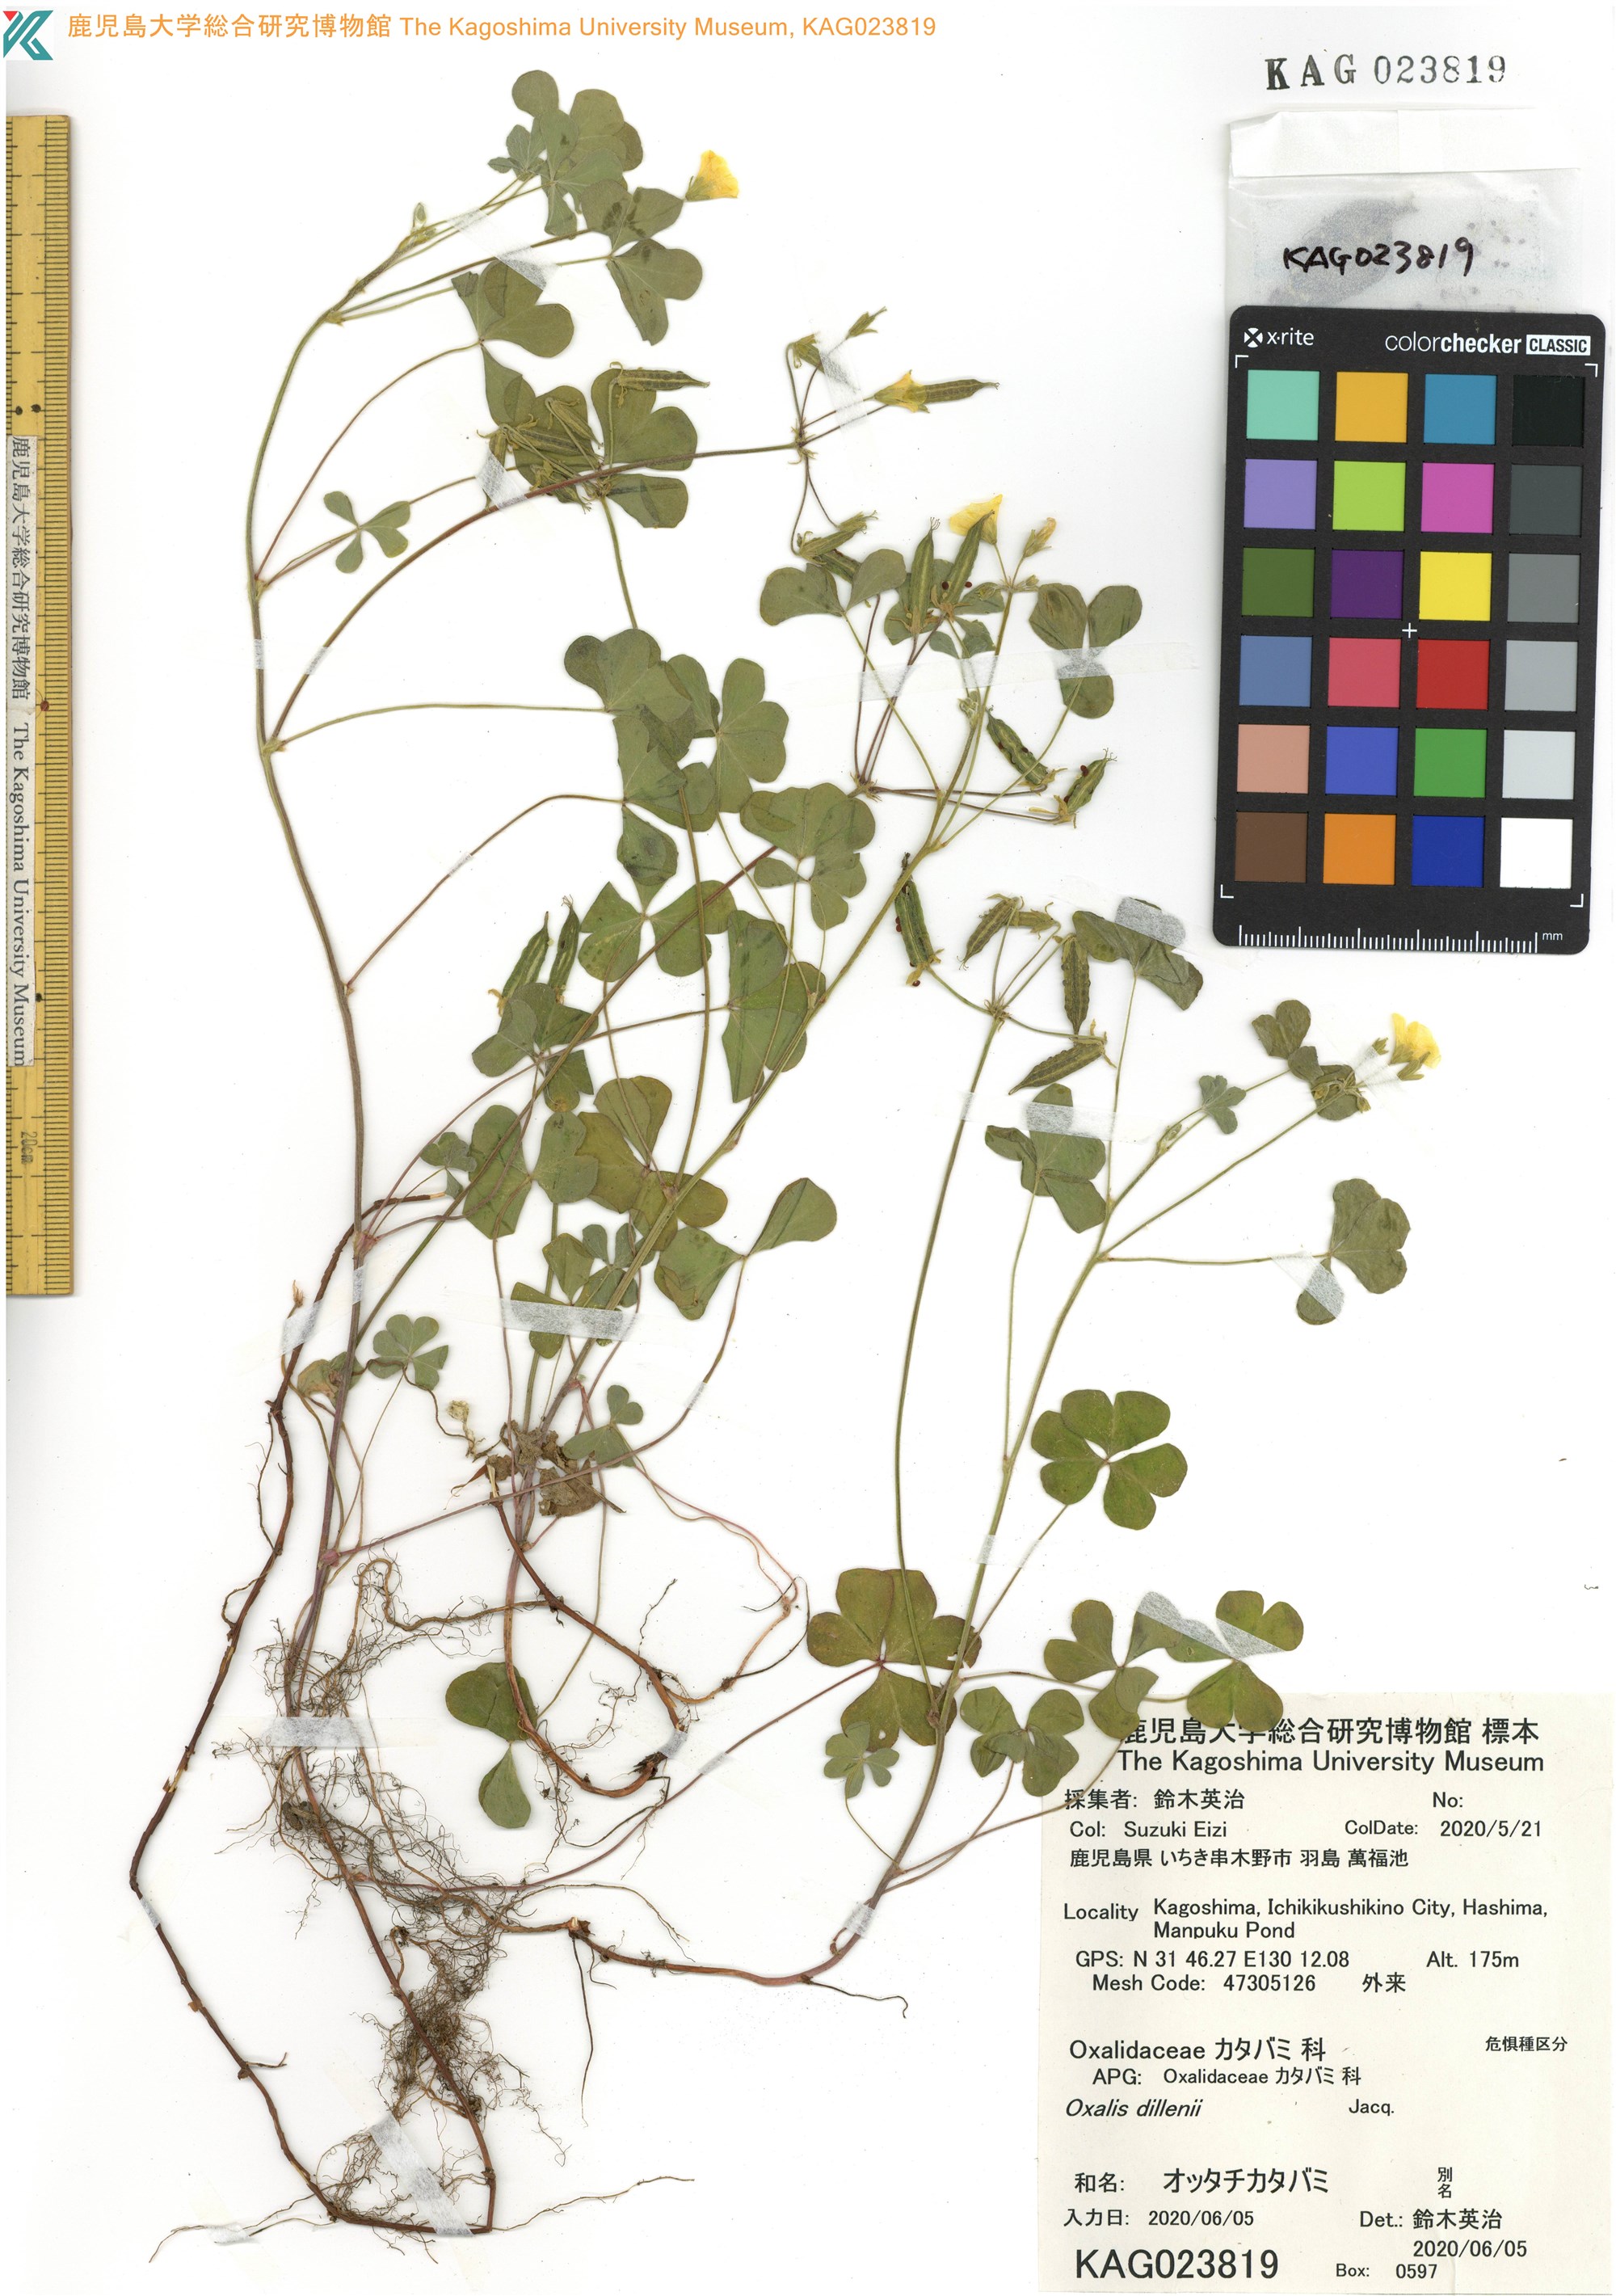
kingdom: Plantae
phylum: Tracheophyta
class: Magnoliopsida
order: Oxalidales
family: Oxalidaceae
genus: Oxalis
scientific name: Oxalis dillenii
